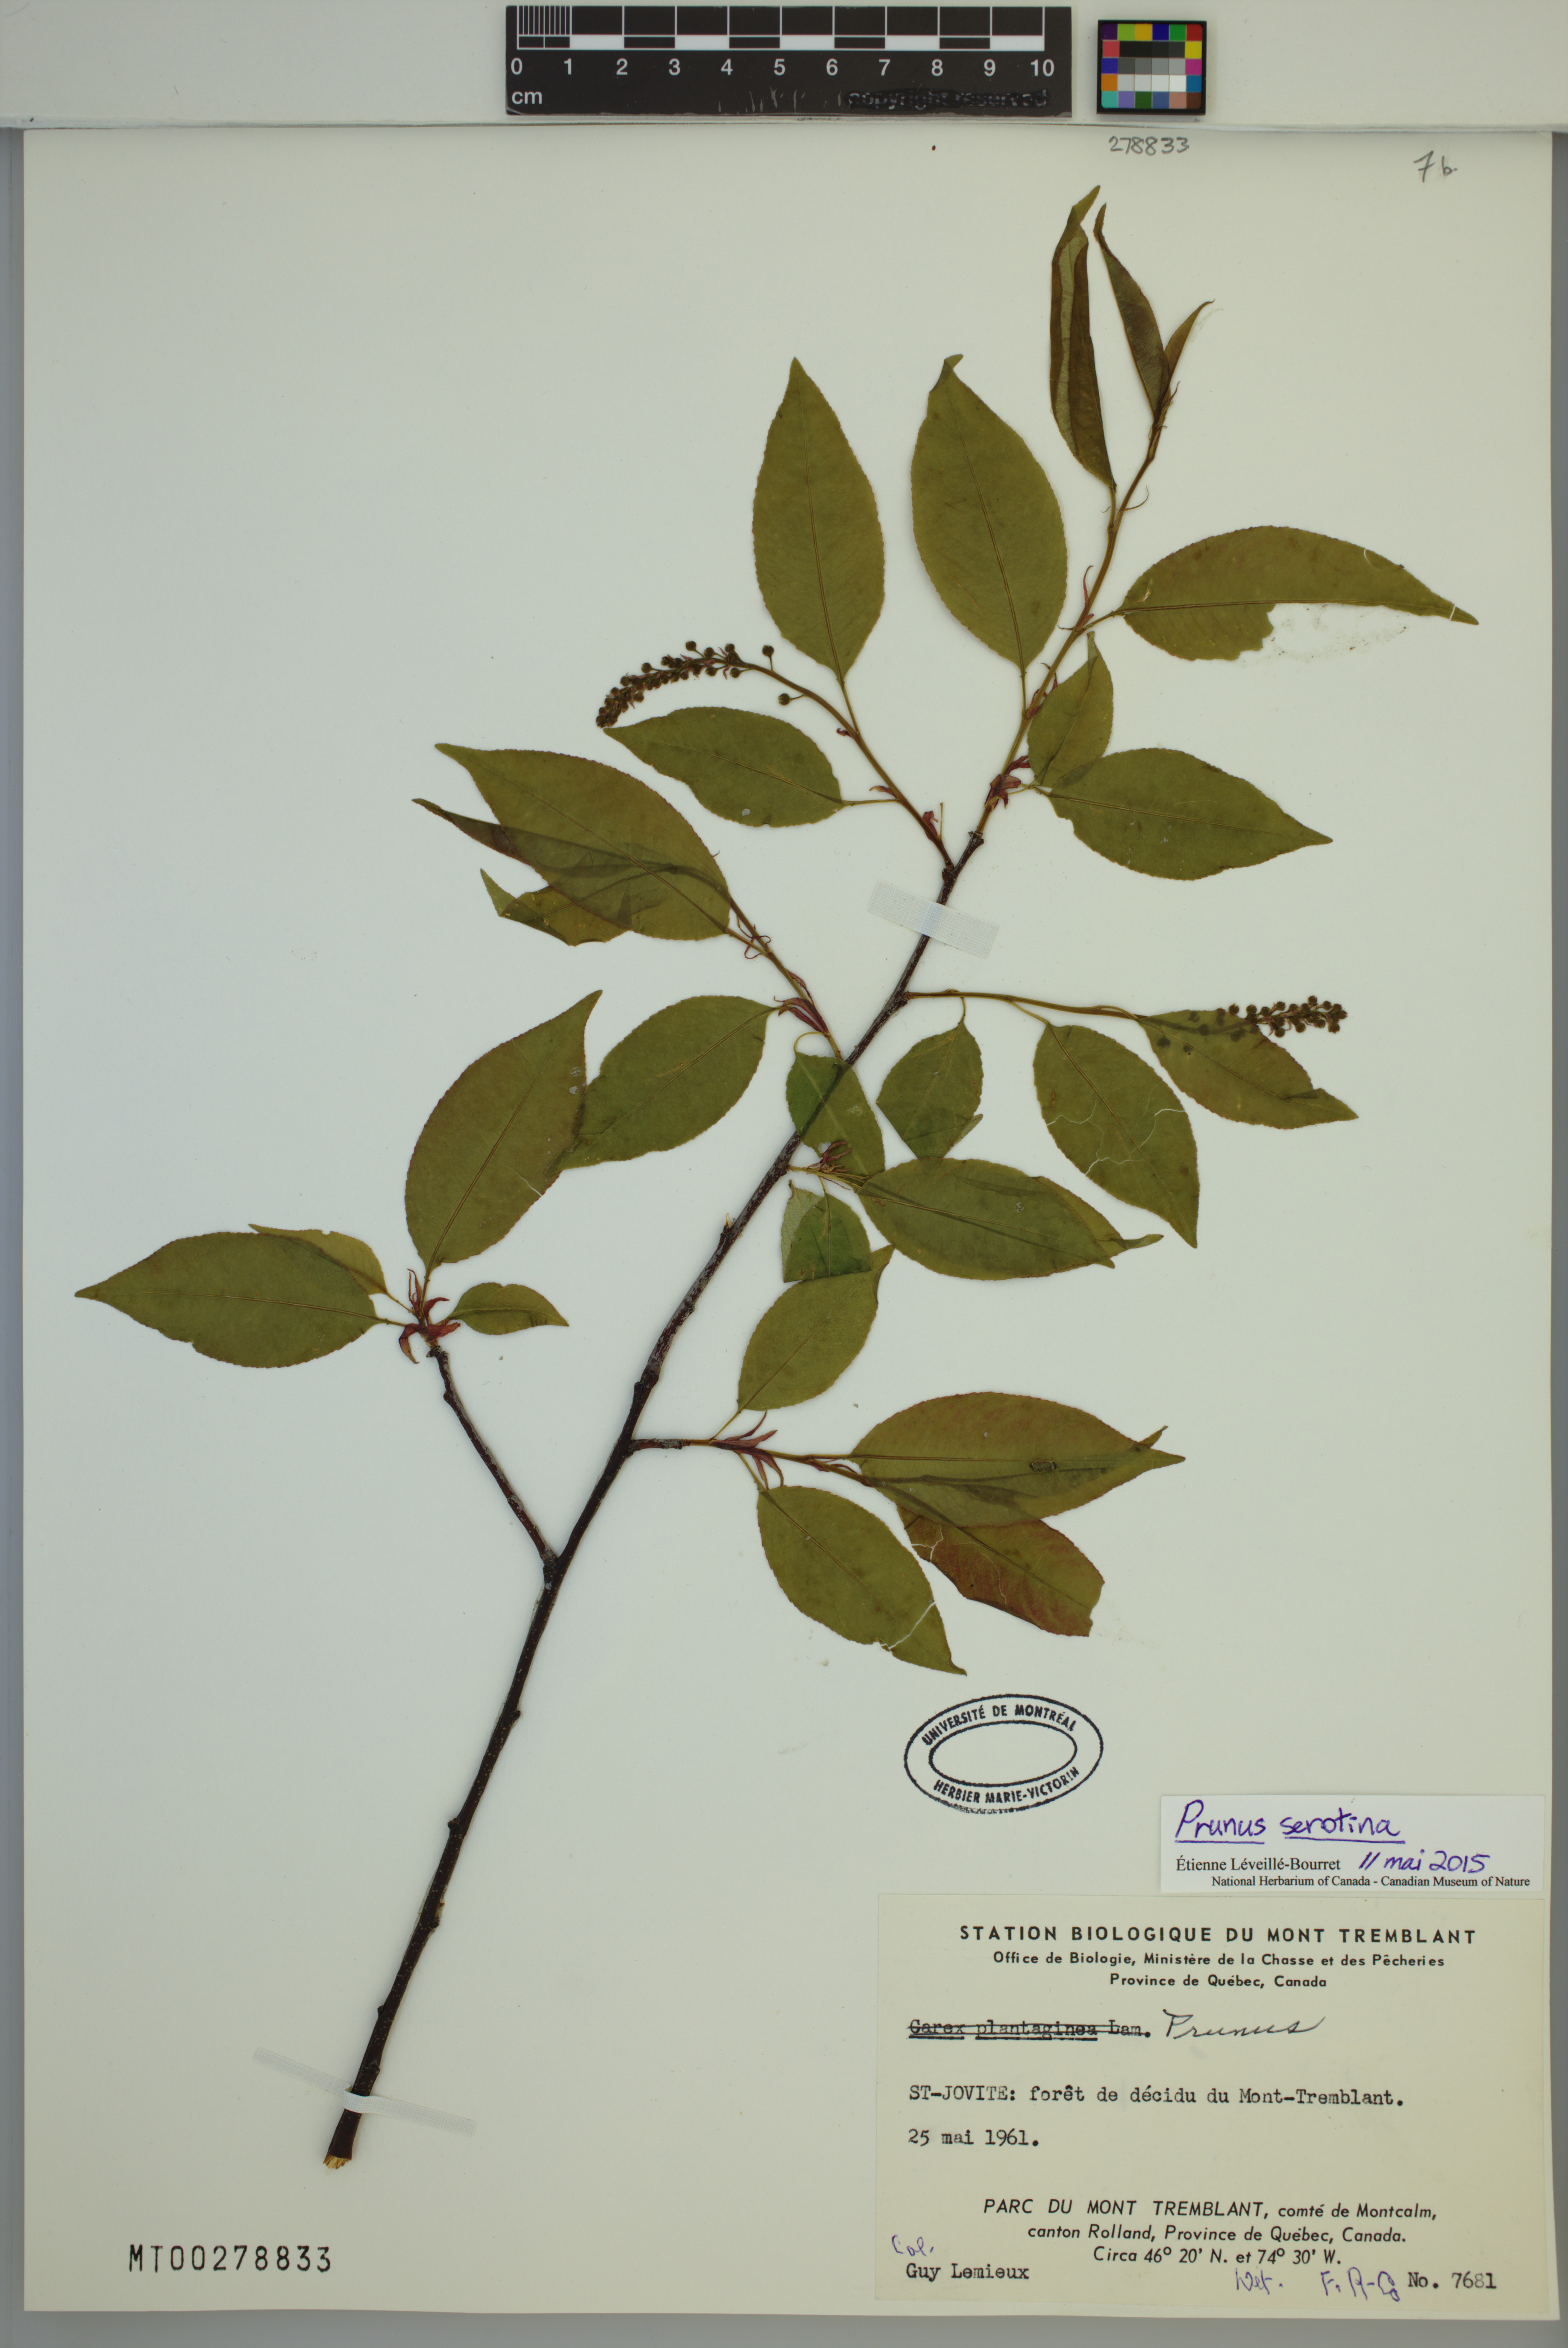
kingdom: Plantae
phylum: Tracheophyta
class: Magnoliopsida
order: Rosales
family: Rosaceae
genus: Prunus
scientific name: Prunus serotina
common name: Black cherry
